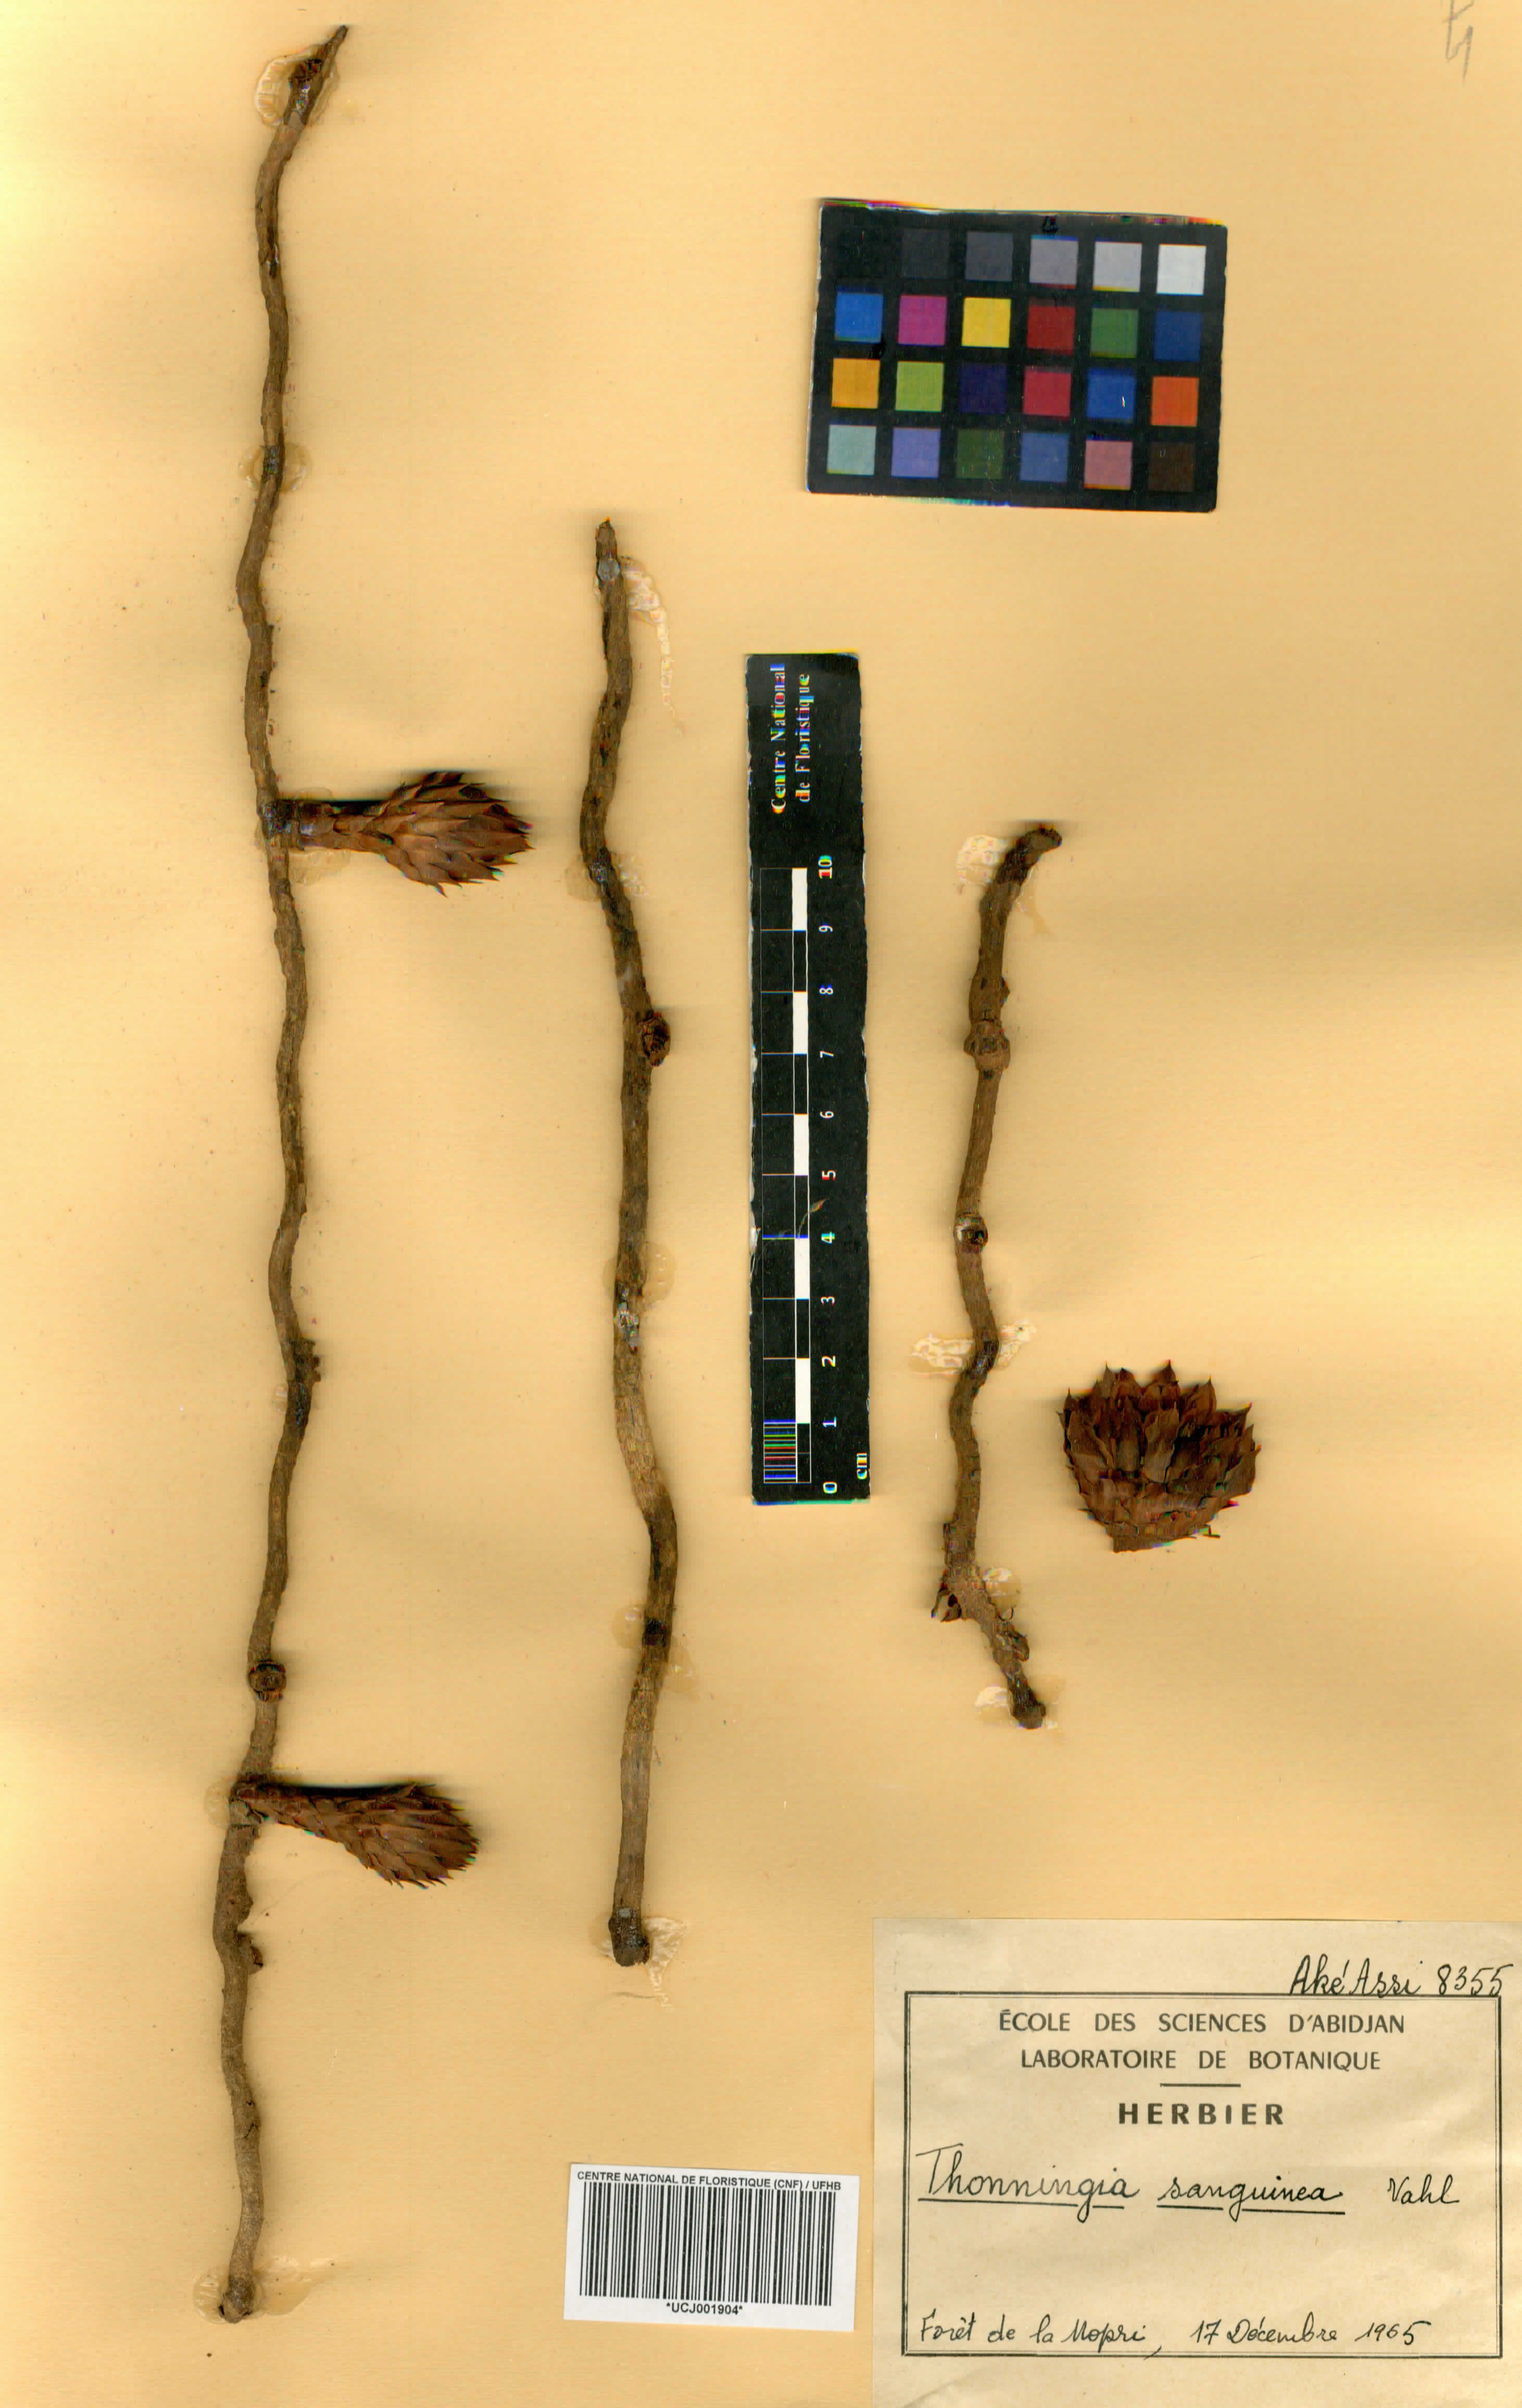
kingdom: Plantae
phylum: Tracheophyta
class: Magnoliopsida
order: Santalales
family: Balanophoraceae
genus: Thonningia
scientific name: Thonningia sanguinea
